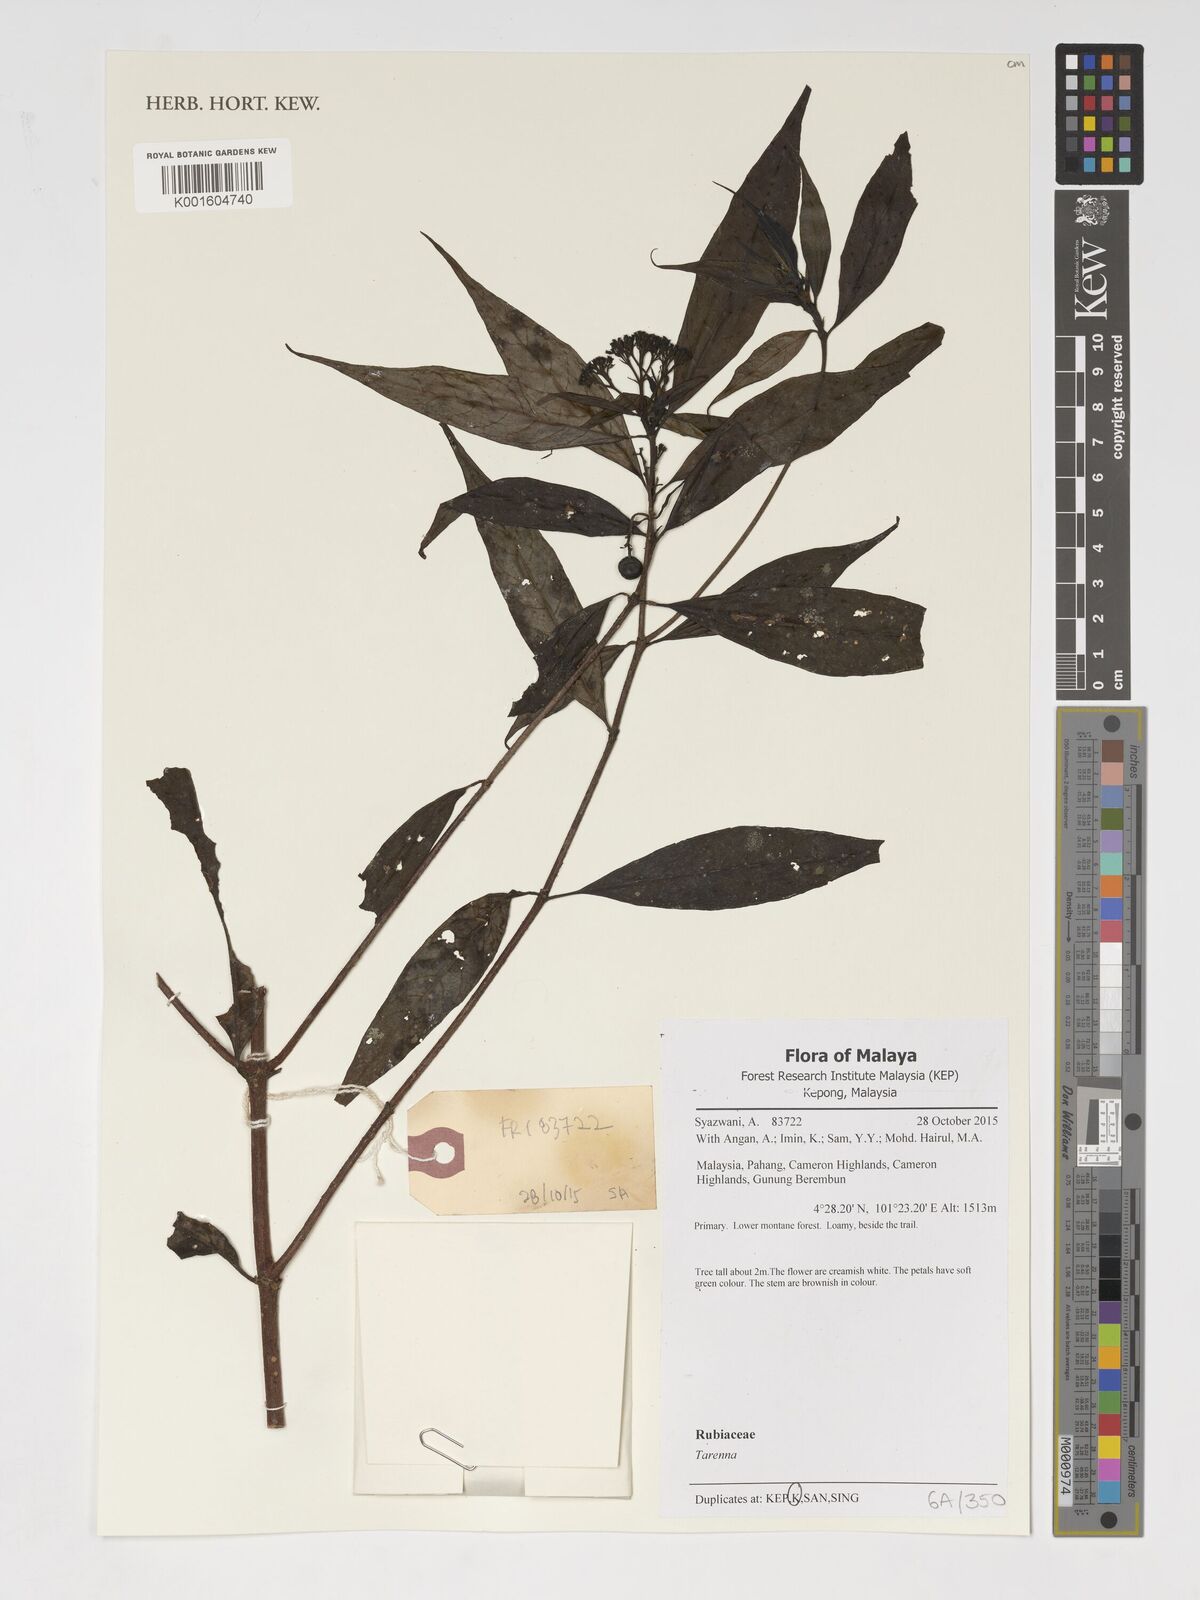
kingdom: Plantae
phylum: Tracheophyta
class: Magnoliopsida
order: Gentianales
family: Rubiaceae
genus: Tarenna
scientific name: Tarenna
